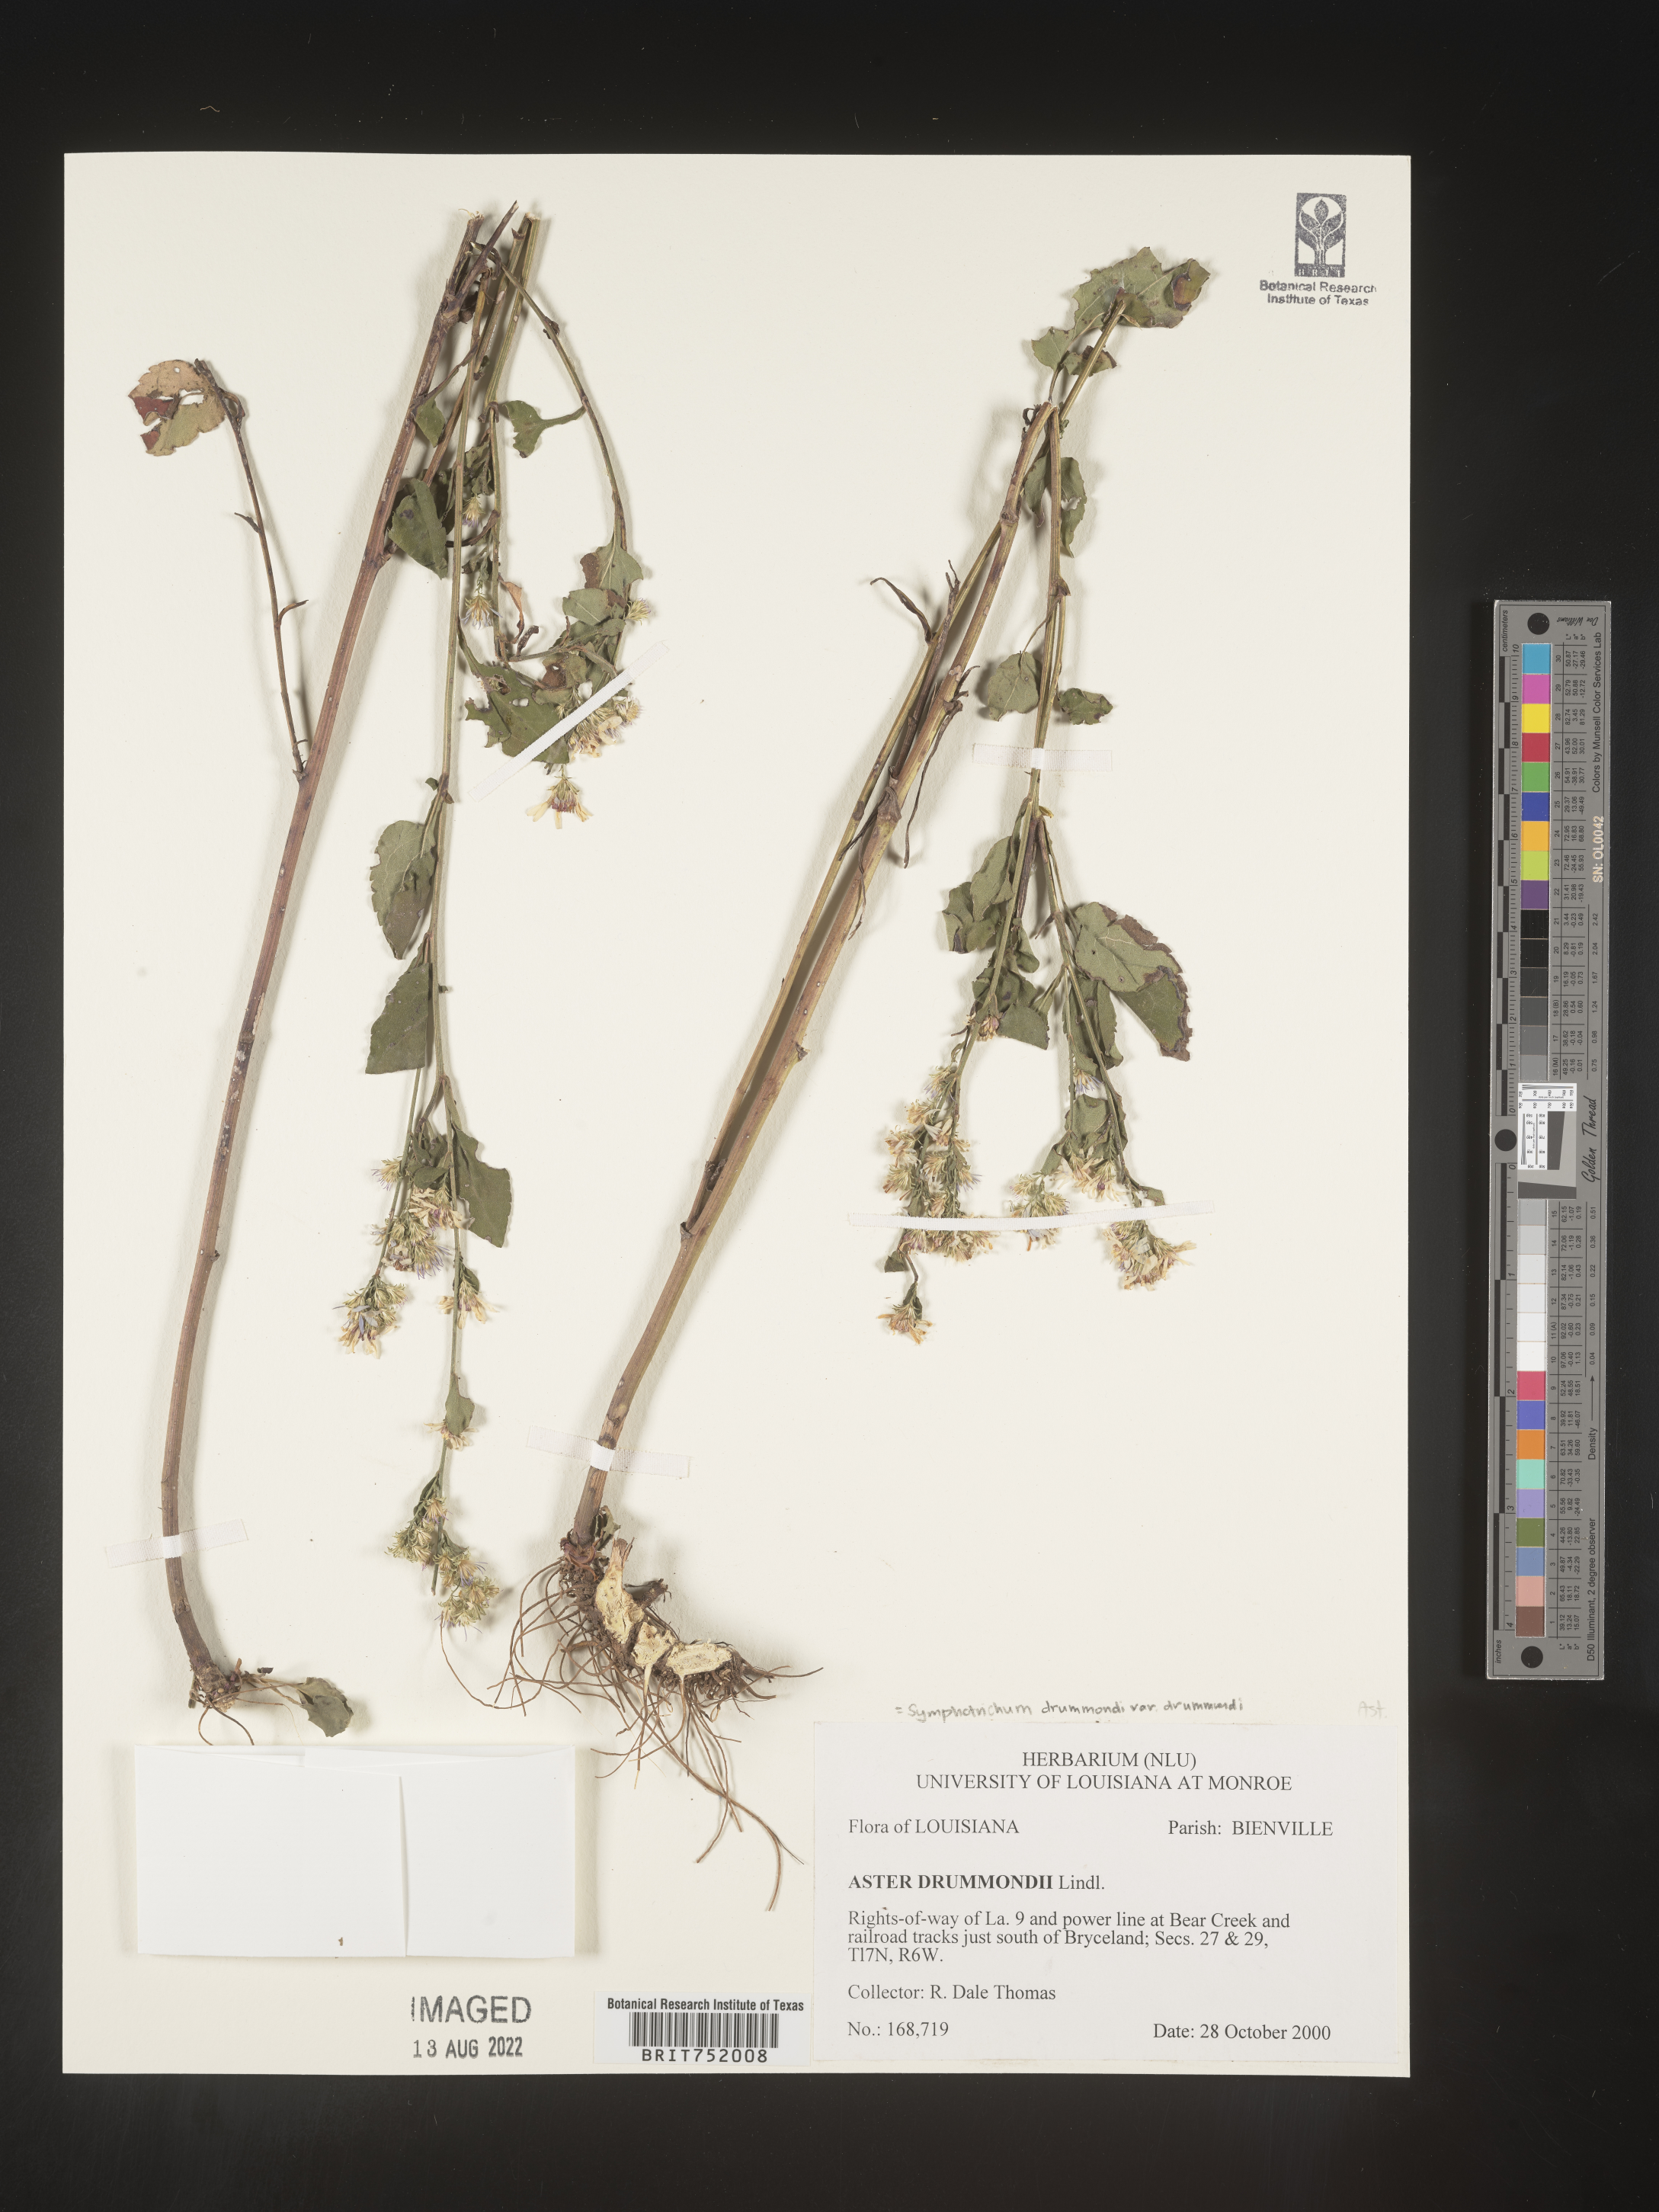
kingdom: Plantae
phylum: Tracheophyta
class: Magnoliopsida
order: Asterales
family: Asteraceae
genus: Symphyotrichum
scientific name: Symphyotrichum drummondii
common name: Drummond's aster
